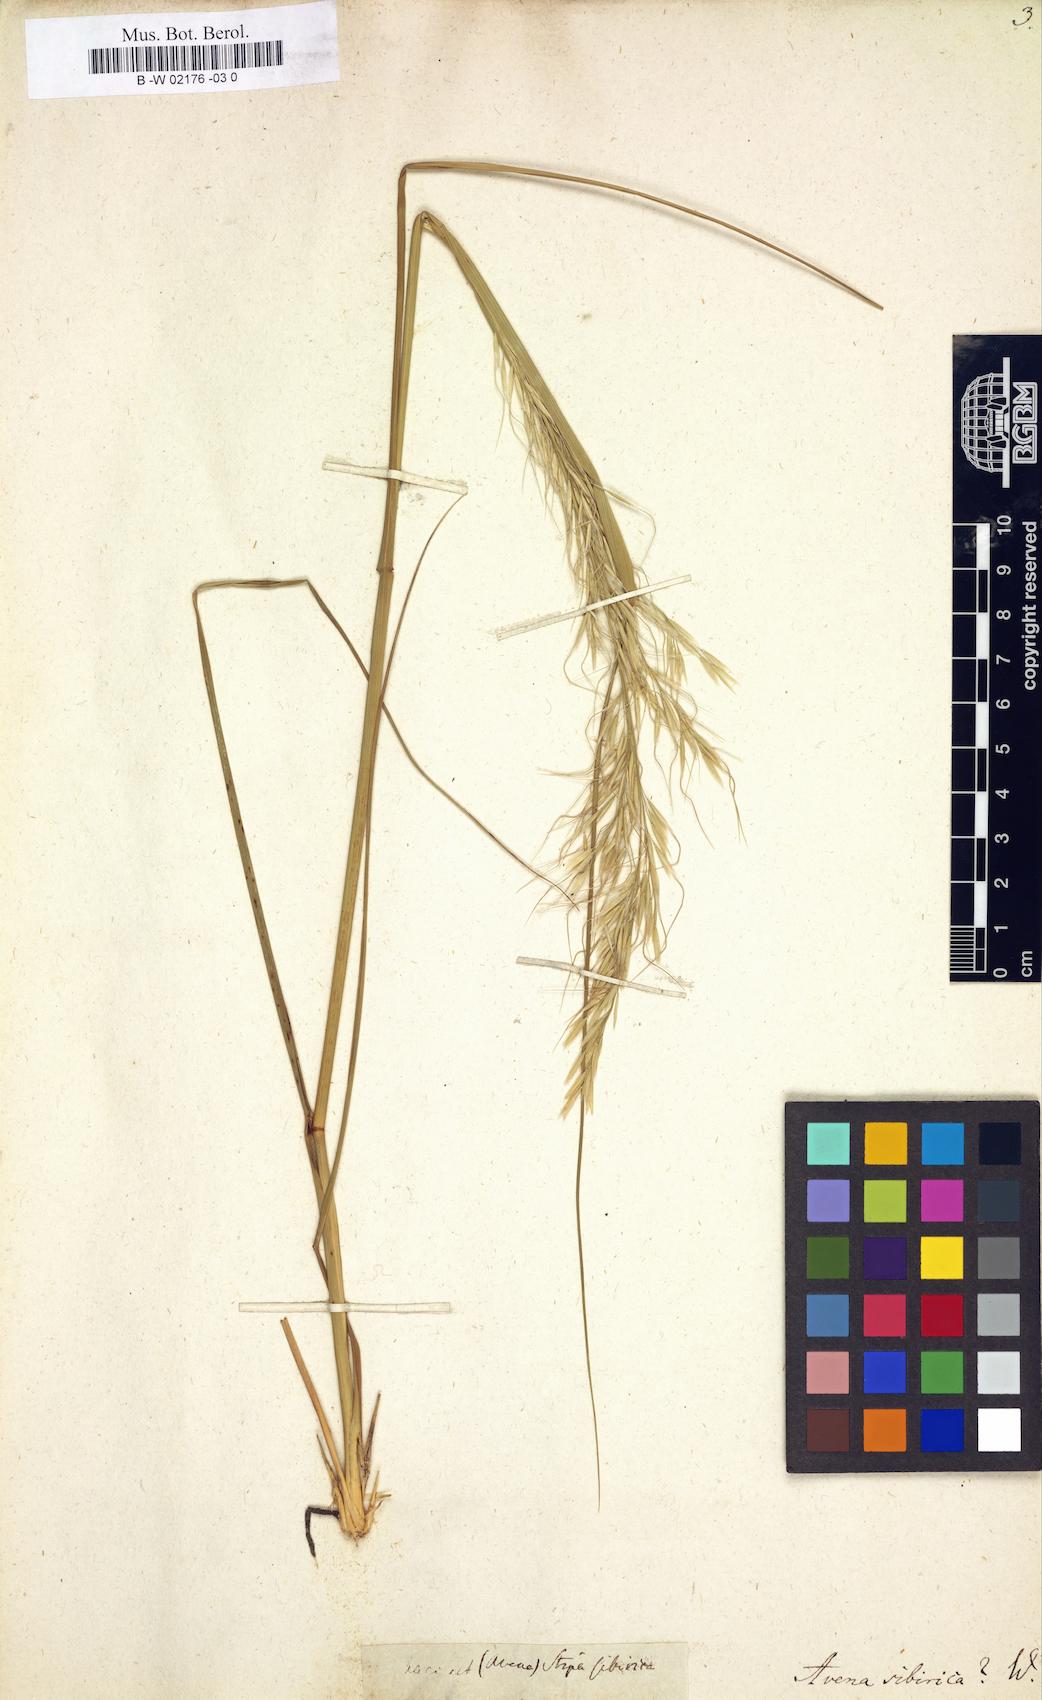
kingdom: Plantae
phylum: Tracheophyta
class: Liliopsida
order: Poales
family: Poaceae
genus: Achnatherum
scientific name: Achnatherum sibiricum
